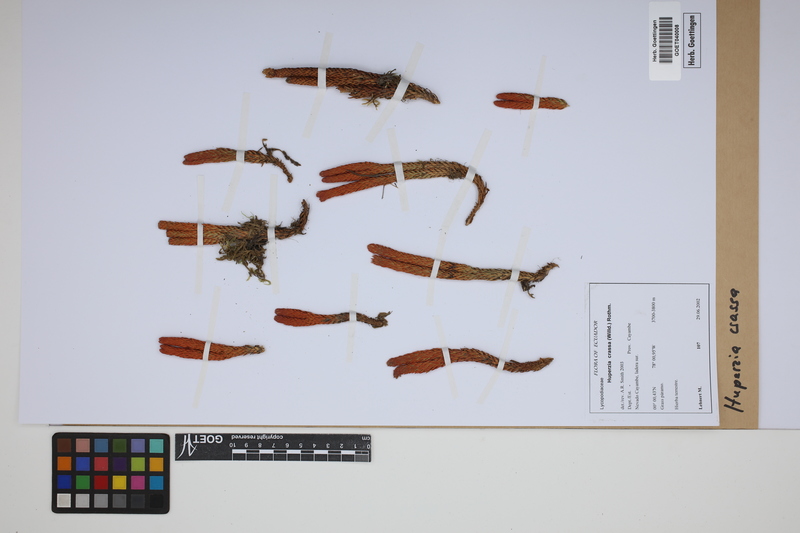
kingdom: Plantae
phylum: Tracheophyta
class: Lycopodiopsida
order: Lycopodiales
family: Lycopodiaceae
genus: Phlegmariurus
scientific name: Phlegmariurus crassus
